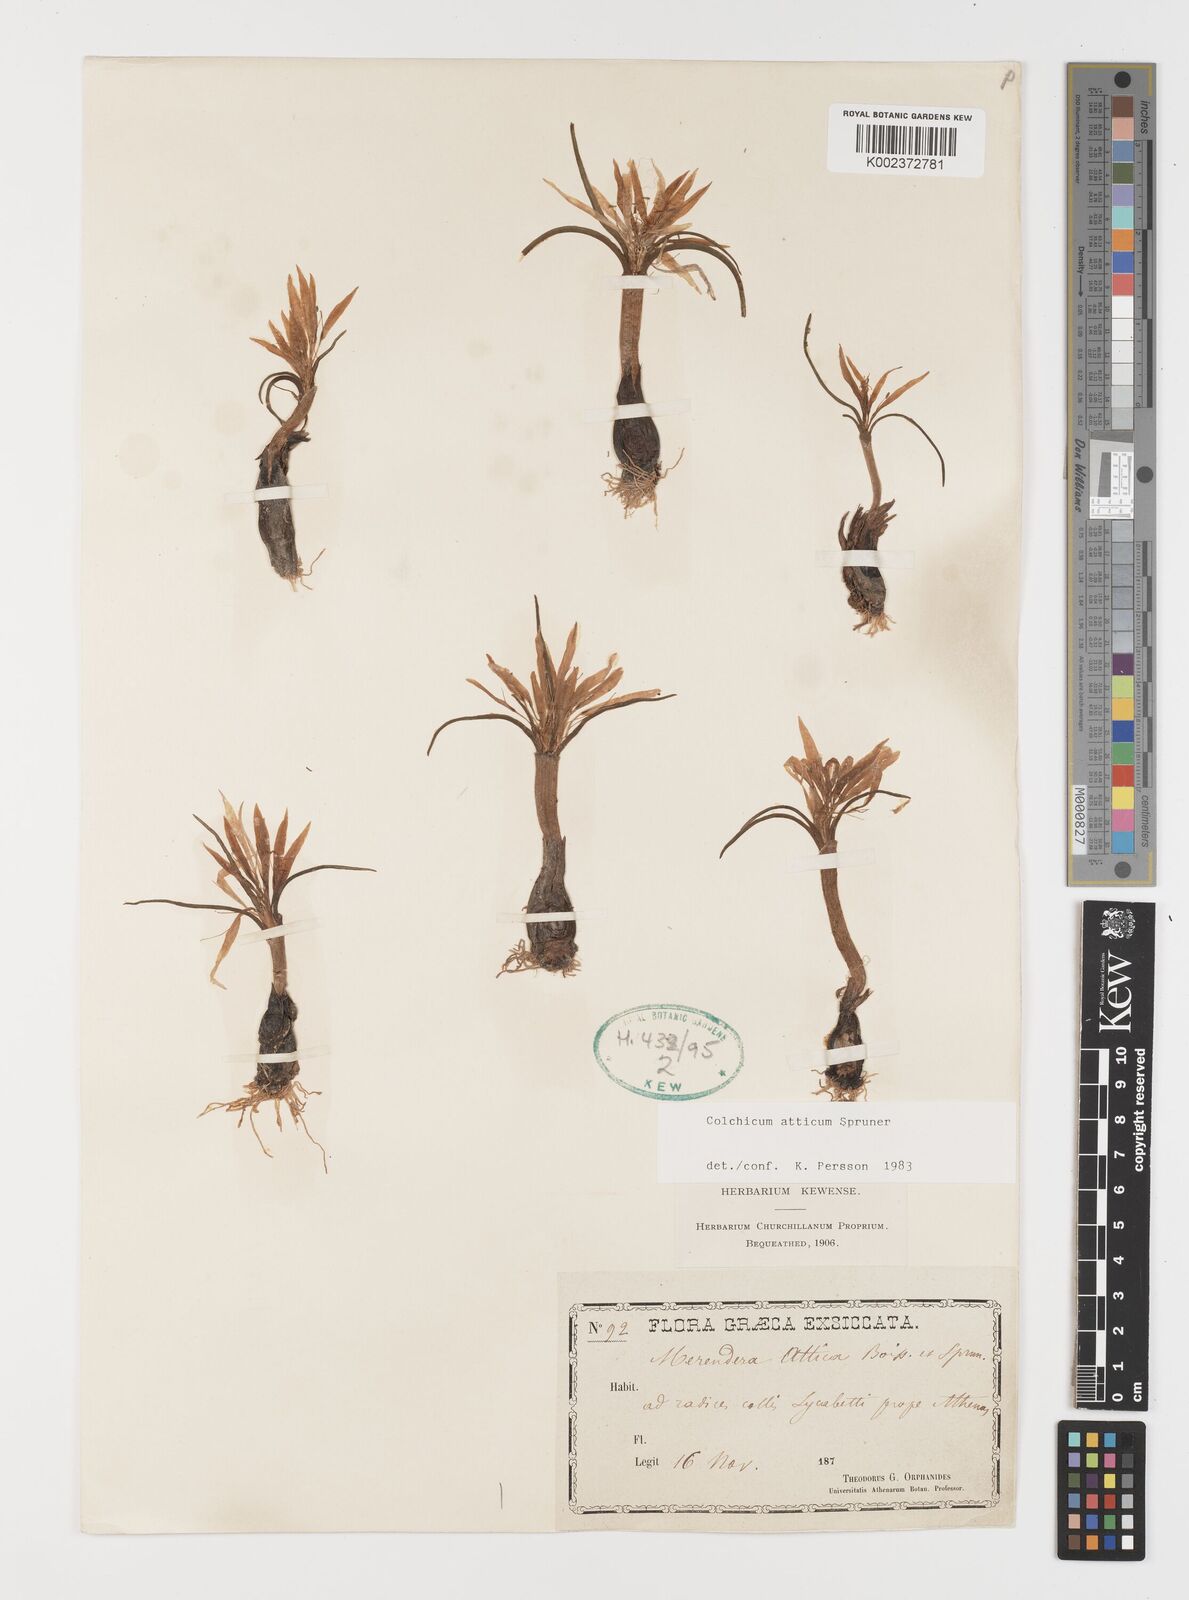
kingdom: Plantae
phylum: Tracheophyta
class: Liliopsida
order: Liliales
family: Colchicaceae
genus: Colchicum
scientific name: Colchicum atticum
